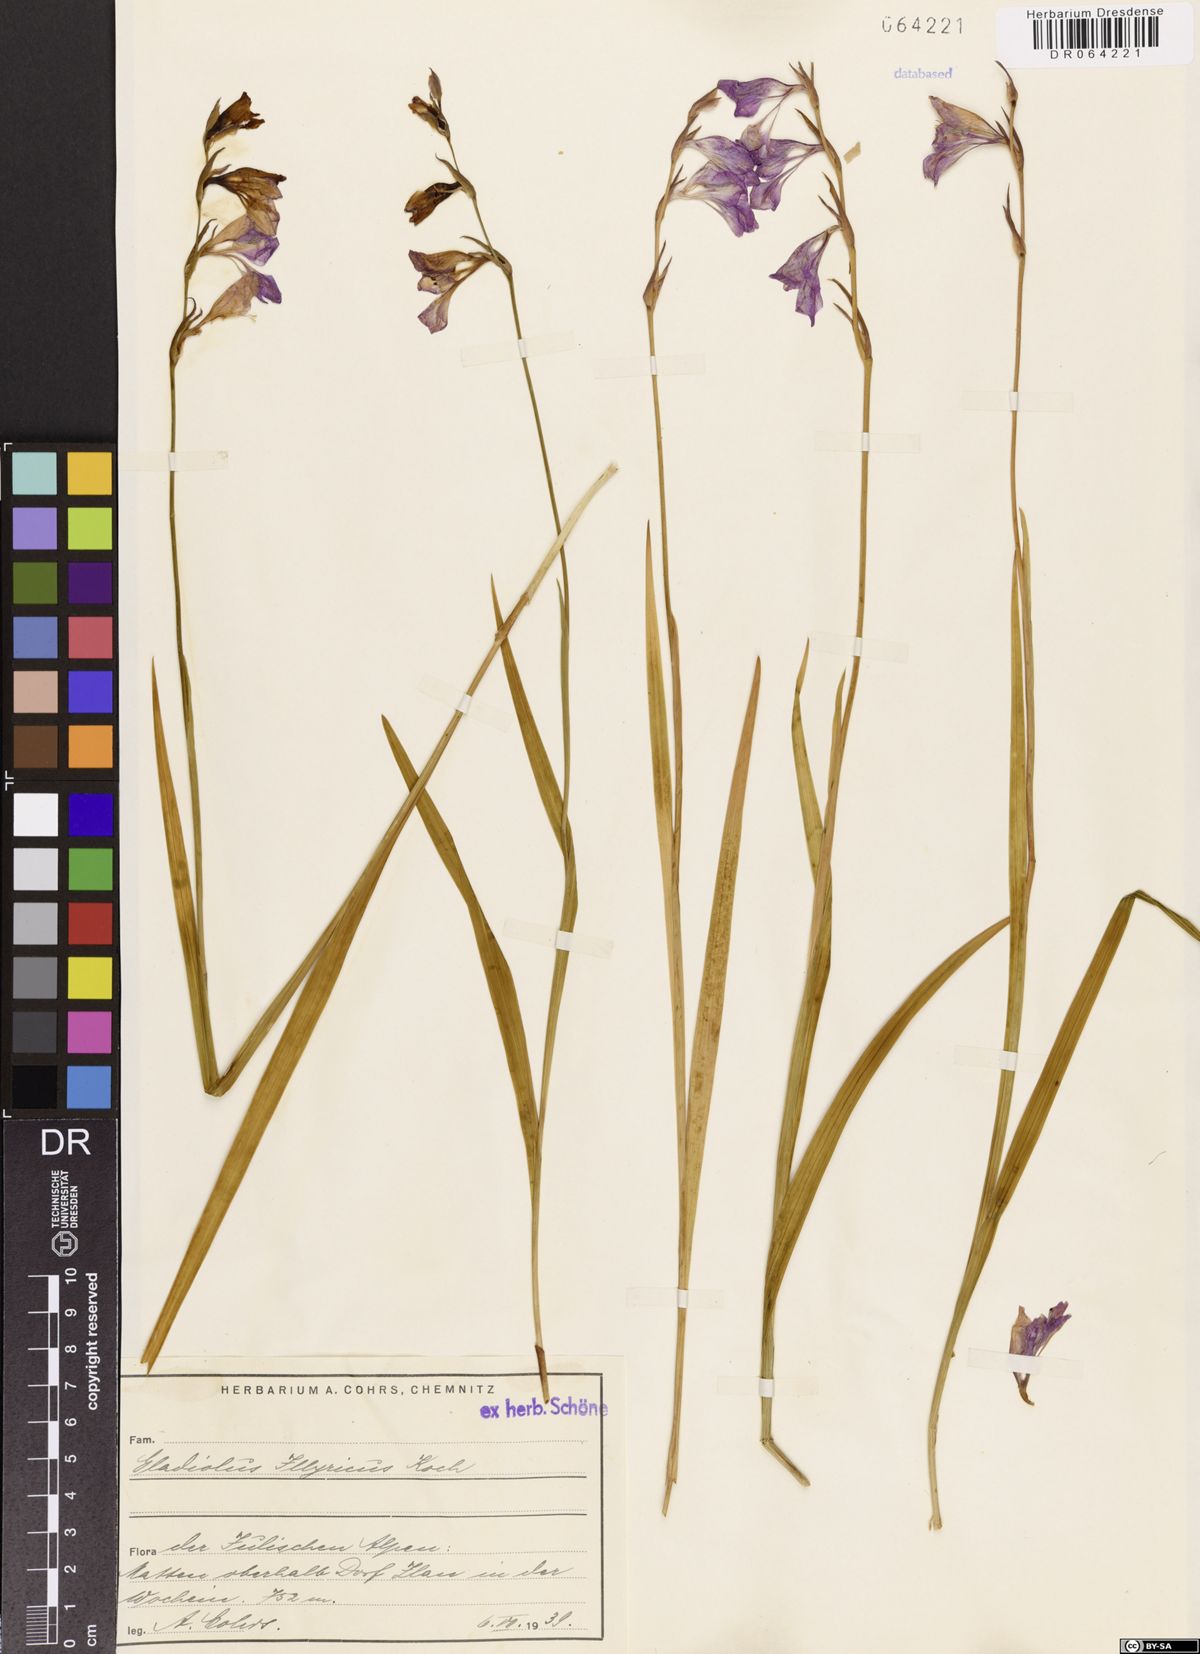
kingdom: Plantae
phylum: Tracheophyta
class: Liliopsida
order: Asparagales
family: Iridaceae
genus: Gladiolus
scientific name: Gladiolus illyricus
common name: Wild gladiolus
